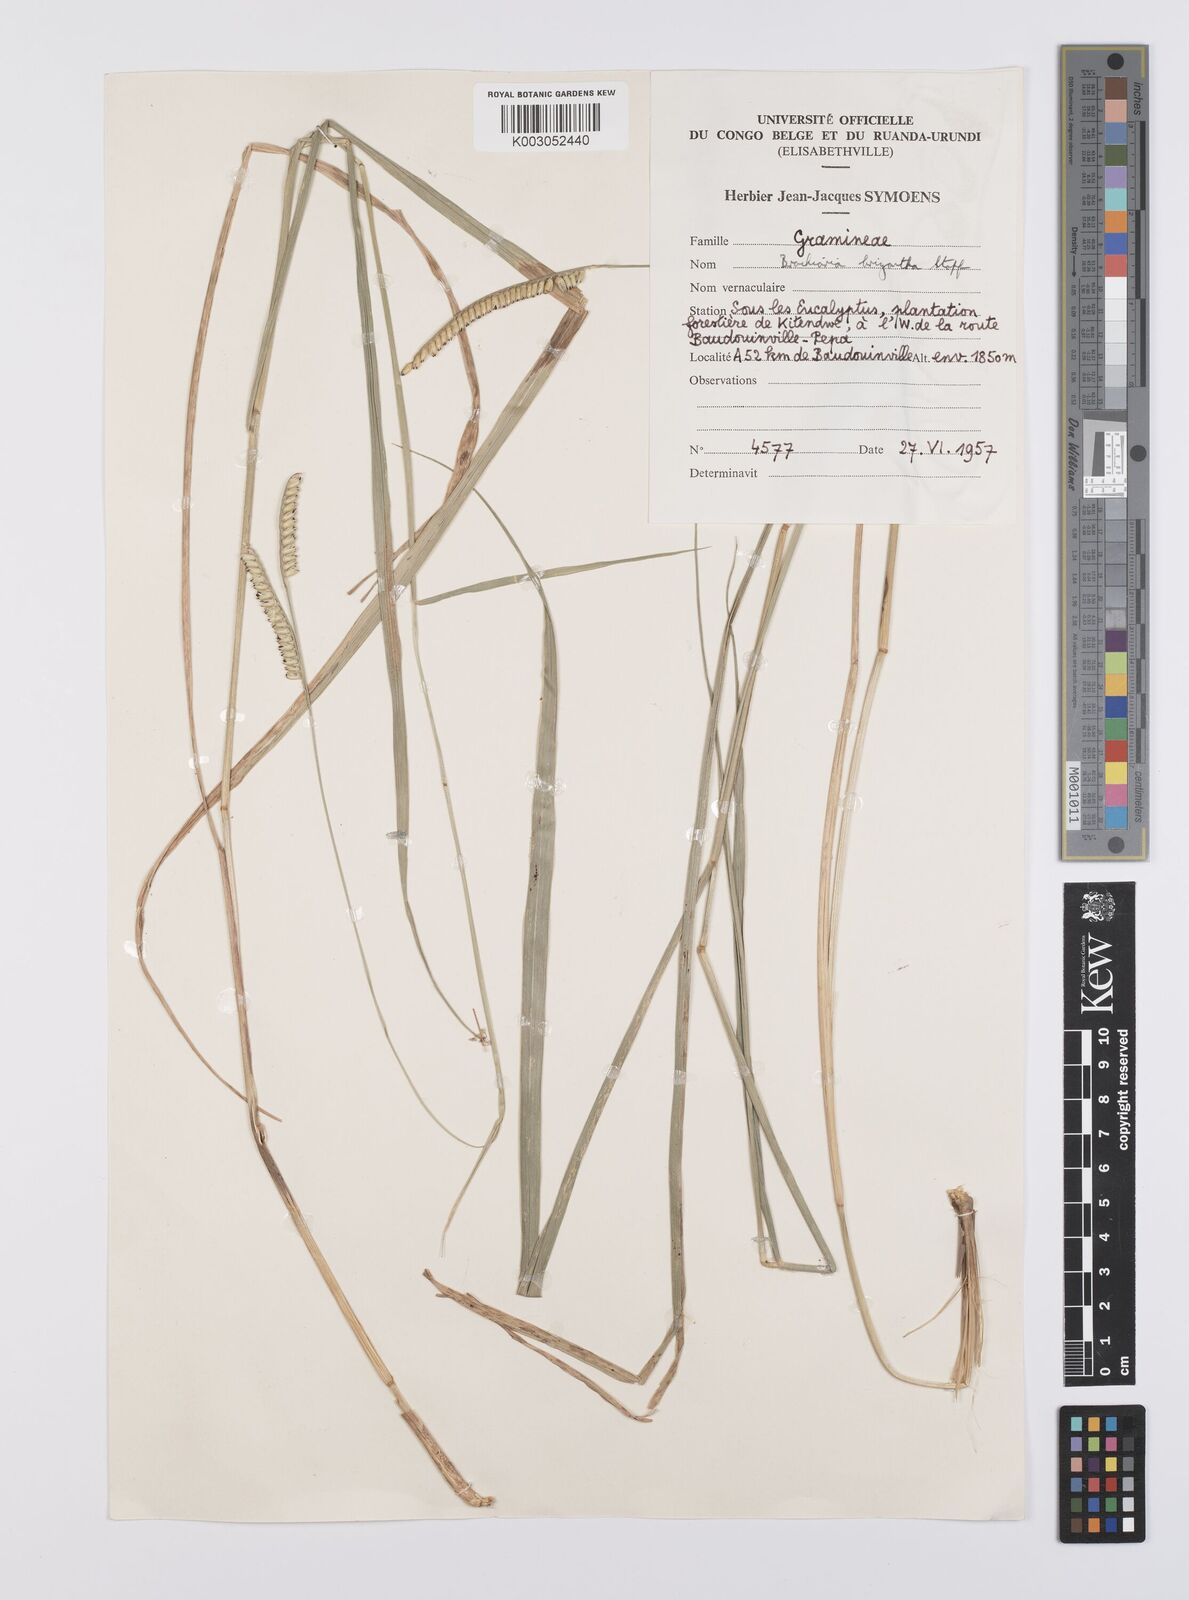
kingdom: Plantae
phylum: Tracheophyta
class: Liliopsida
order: Poales
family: Poaceae
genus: Urochloa
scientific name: Urochloa brizantha
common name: Palisade signalgrass
